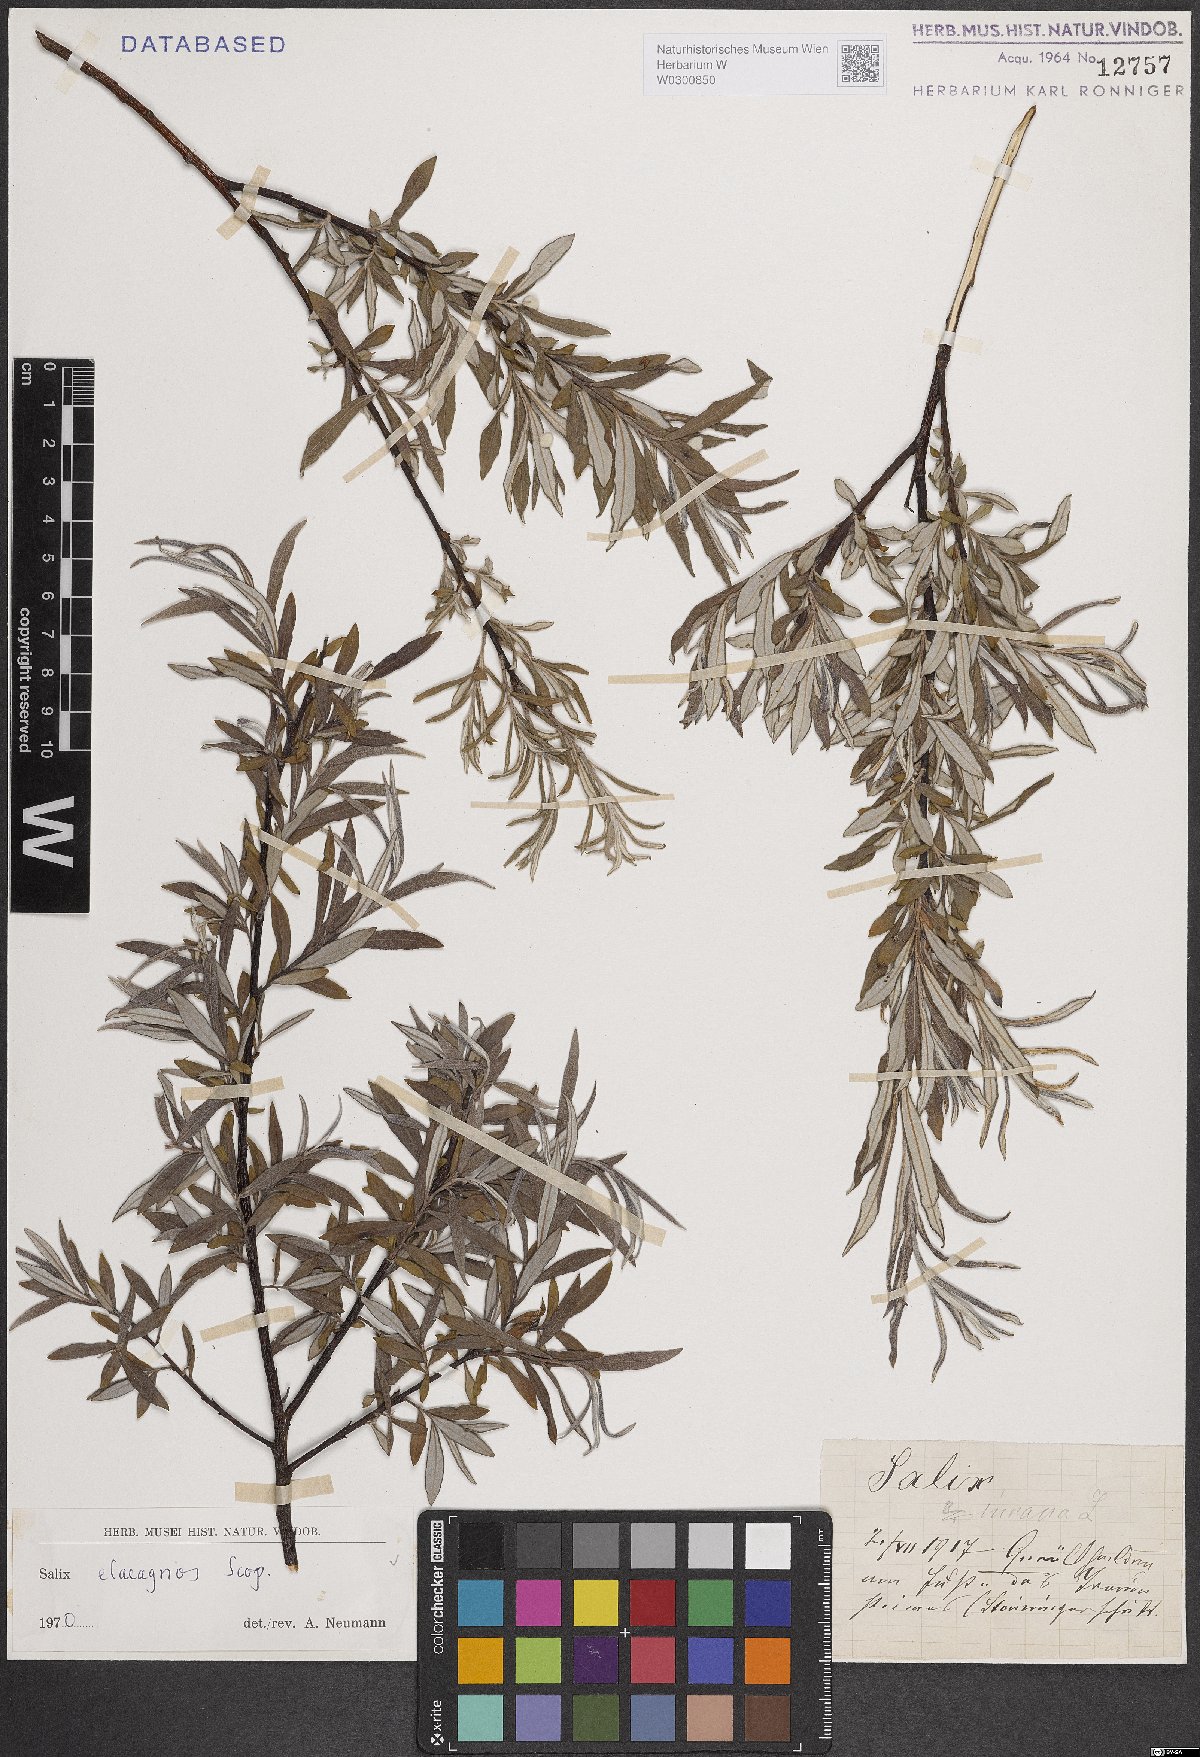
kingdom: Plantae
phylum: Tracheophyta
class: Magnoliopsida
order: Malpighiales
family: Salicaceae
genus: Salix
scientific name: Salix eleagnos
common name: Elaeagnus willow
